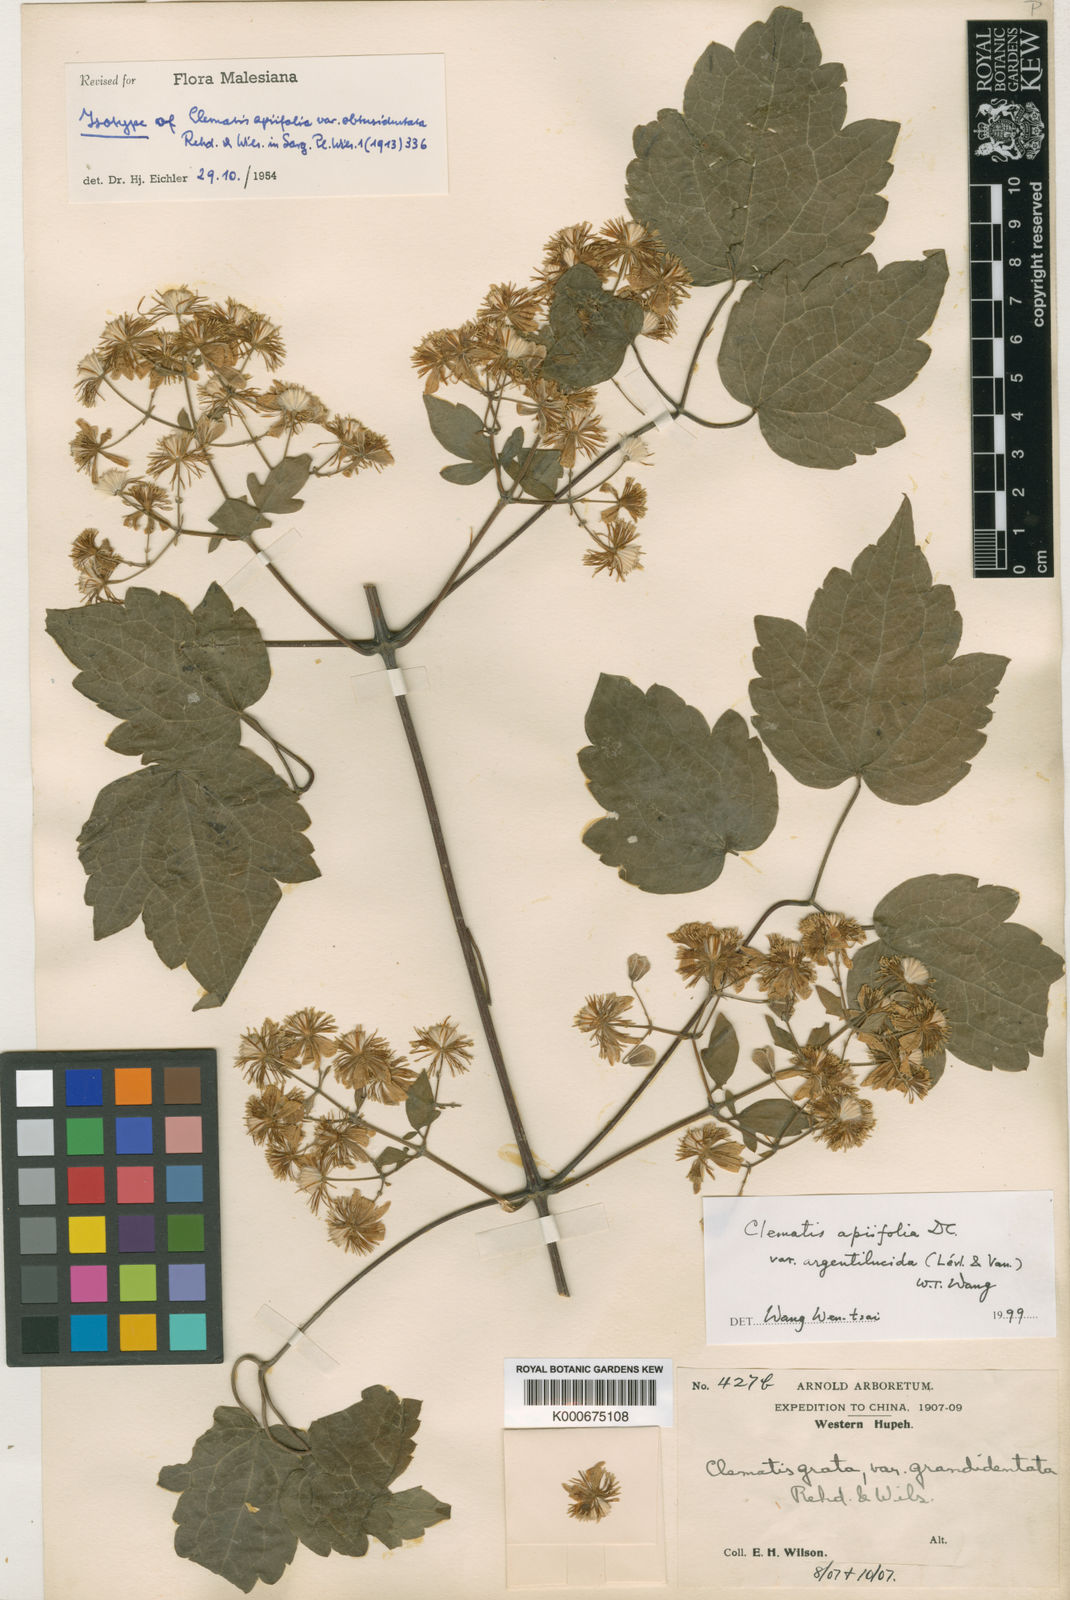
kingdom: Plantae
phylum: Tracheophyta
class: Magnoliopsida
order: Ranunculales
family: Ranunculaceae
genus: Clematis
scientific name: Clematis apiifolia
